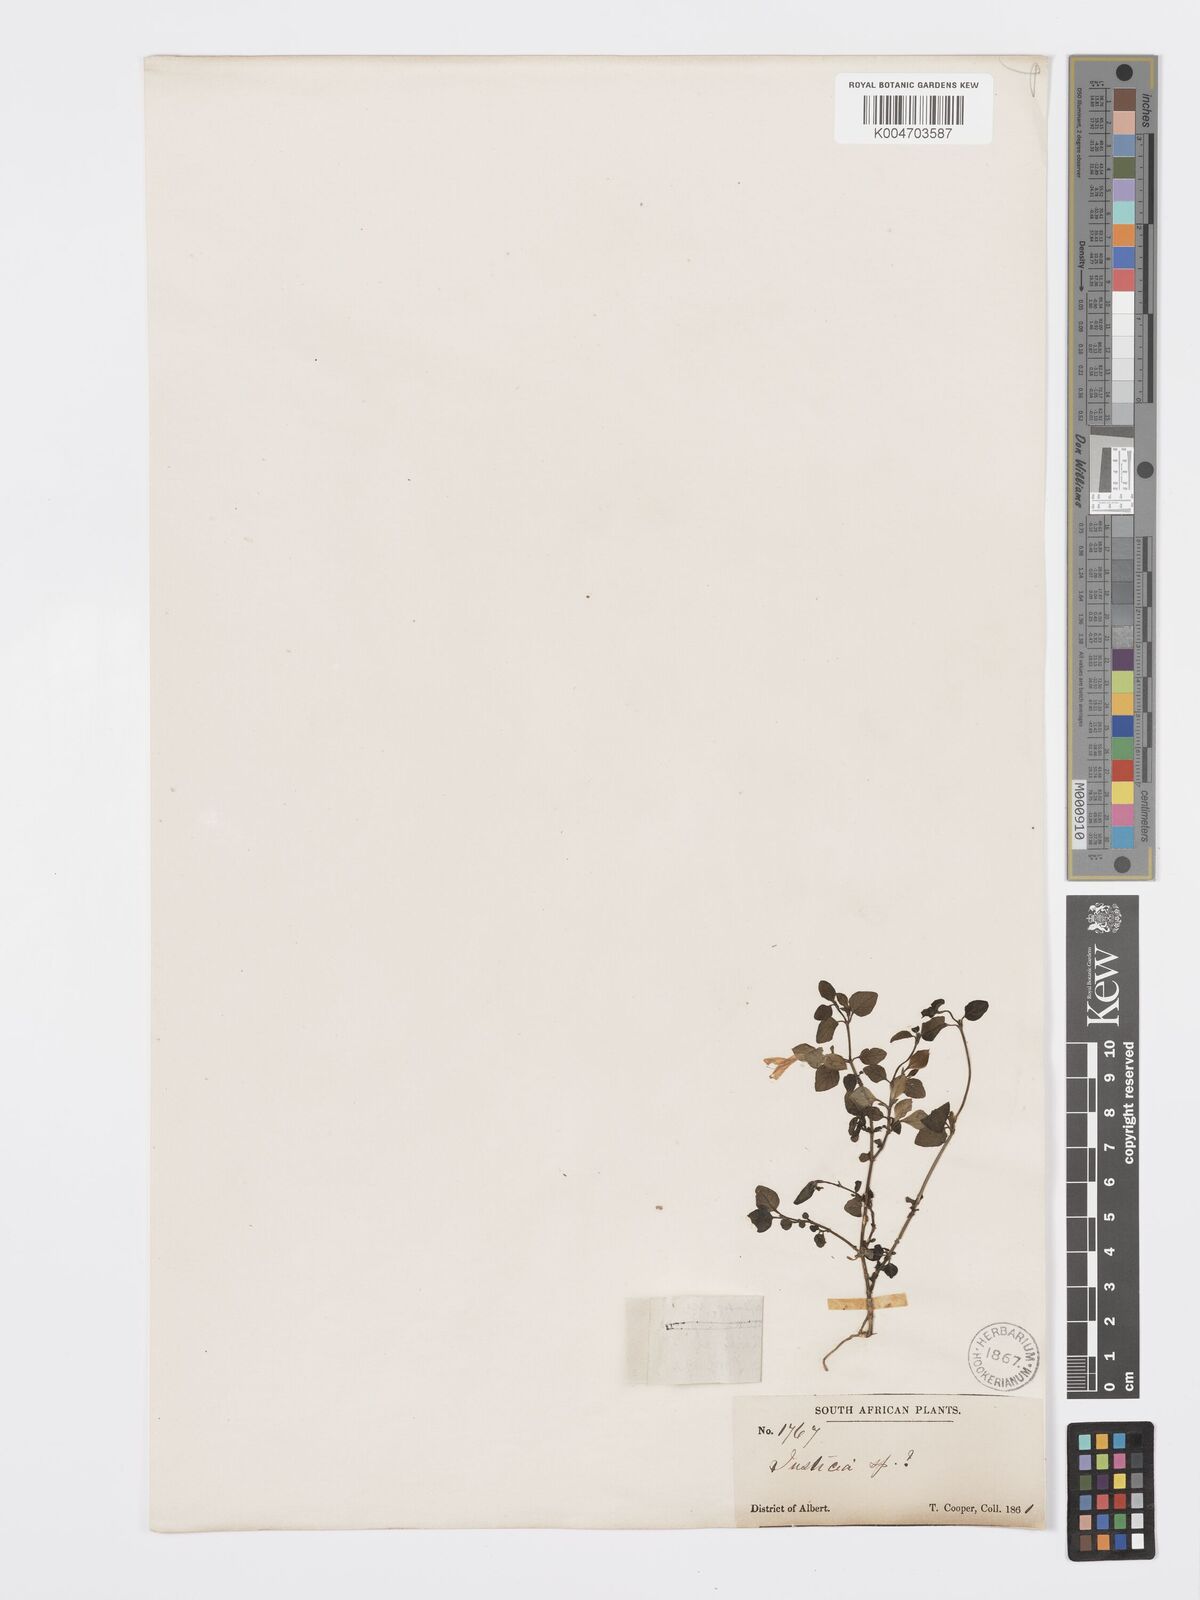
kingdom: Plantae
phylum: Tracheophyta
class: Magnoliopsida
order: Lamiales
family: Acanthaceae
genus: Dicliptera
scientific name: Dicliptera capensis
